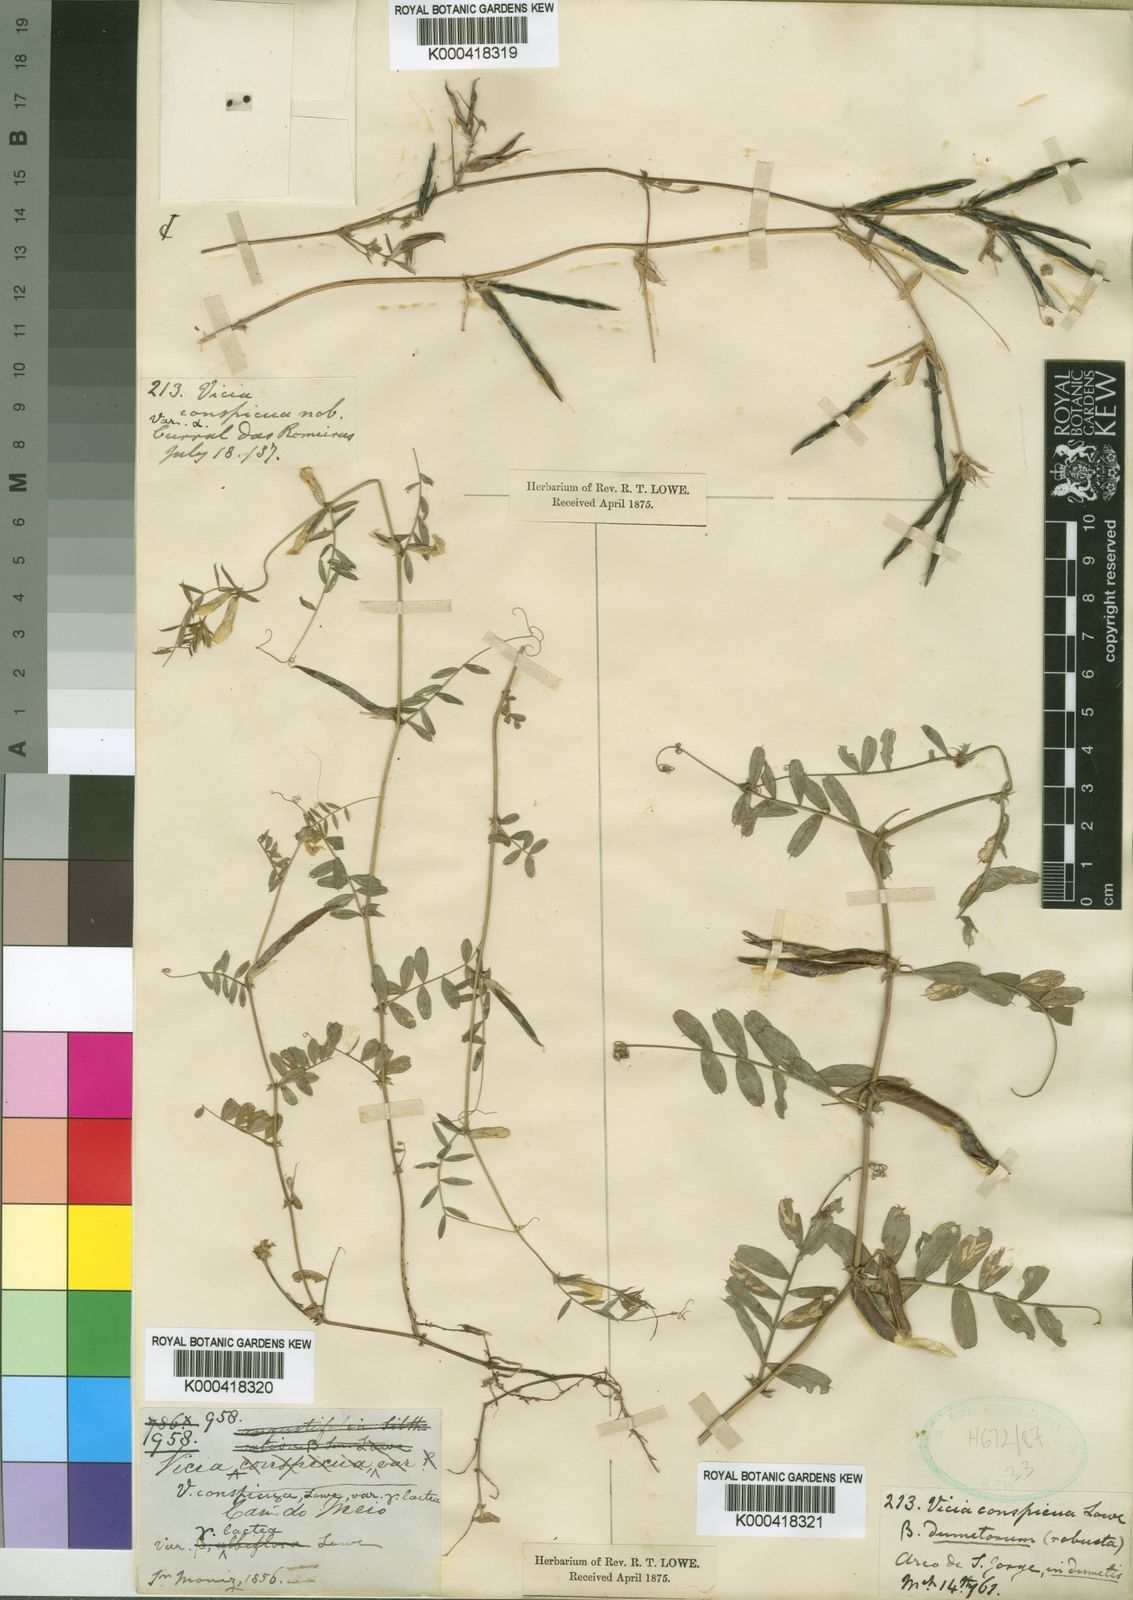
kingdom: Plantae
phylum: Tracheophyta
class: Magnoliopsida
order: Fabales
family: Fabaceae
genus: Vicia
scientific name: Vicia sativa
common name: Garden vetch
